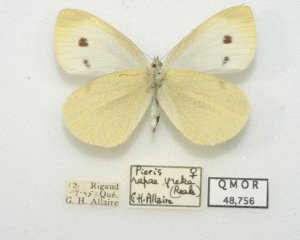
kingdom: Animalia
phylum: Arthropoda
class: Insecta
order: Lepidoptera
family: Pieridae
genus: Pieris
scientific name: Pieris rapae
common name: Cabbage White
